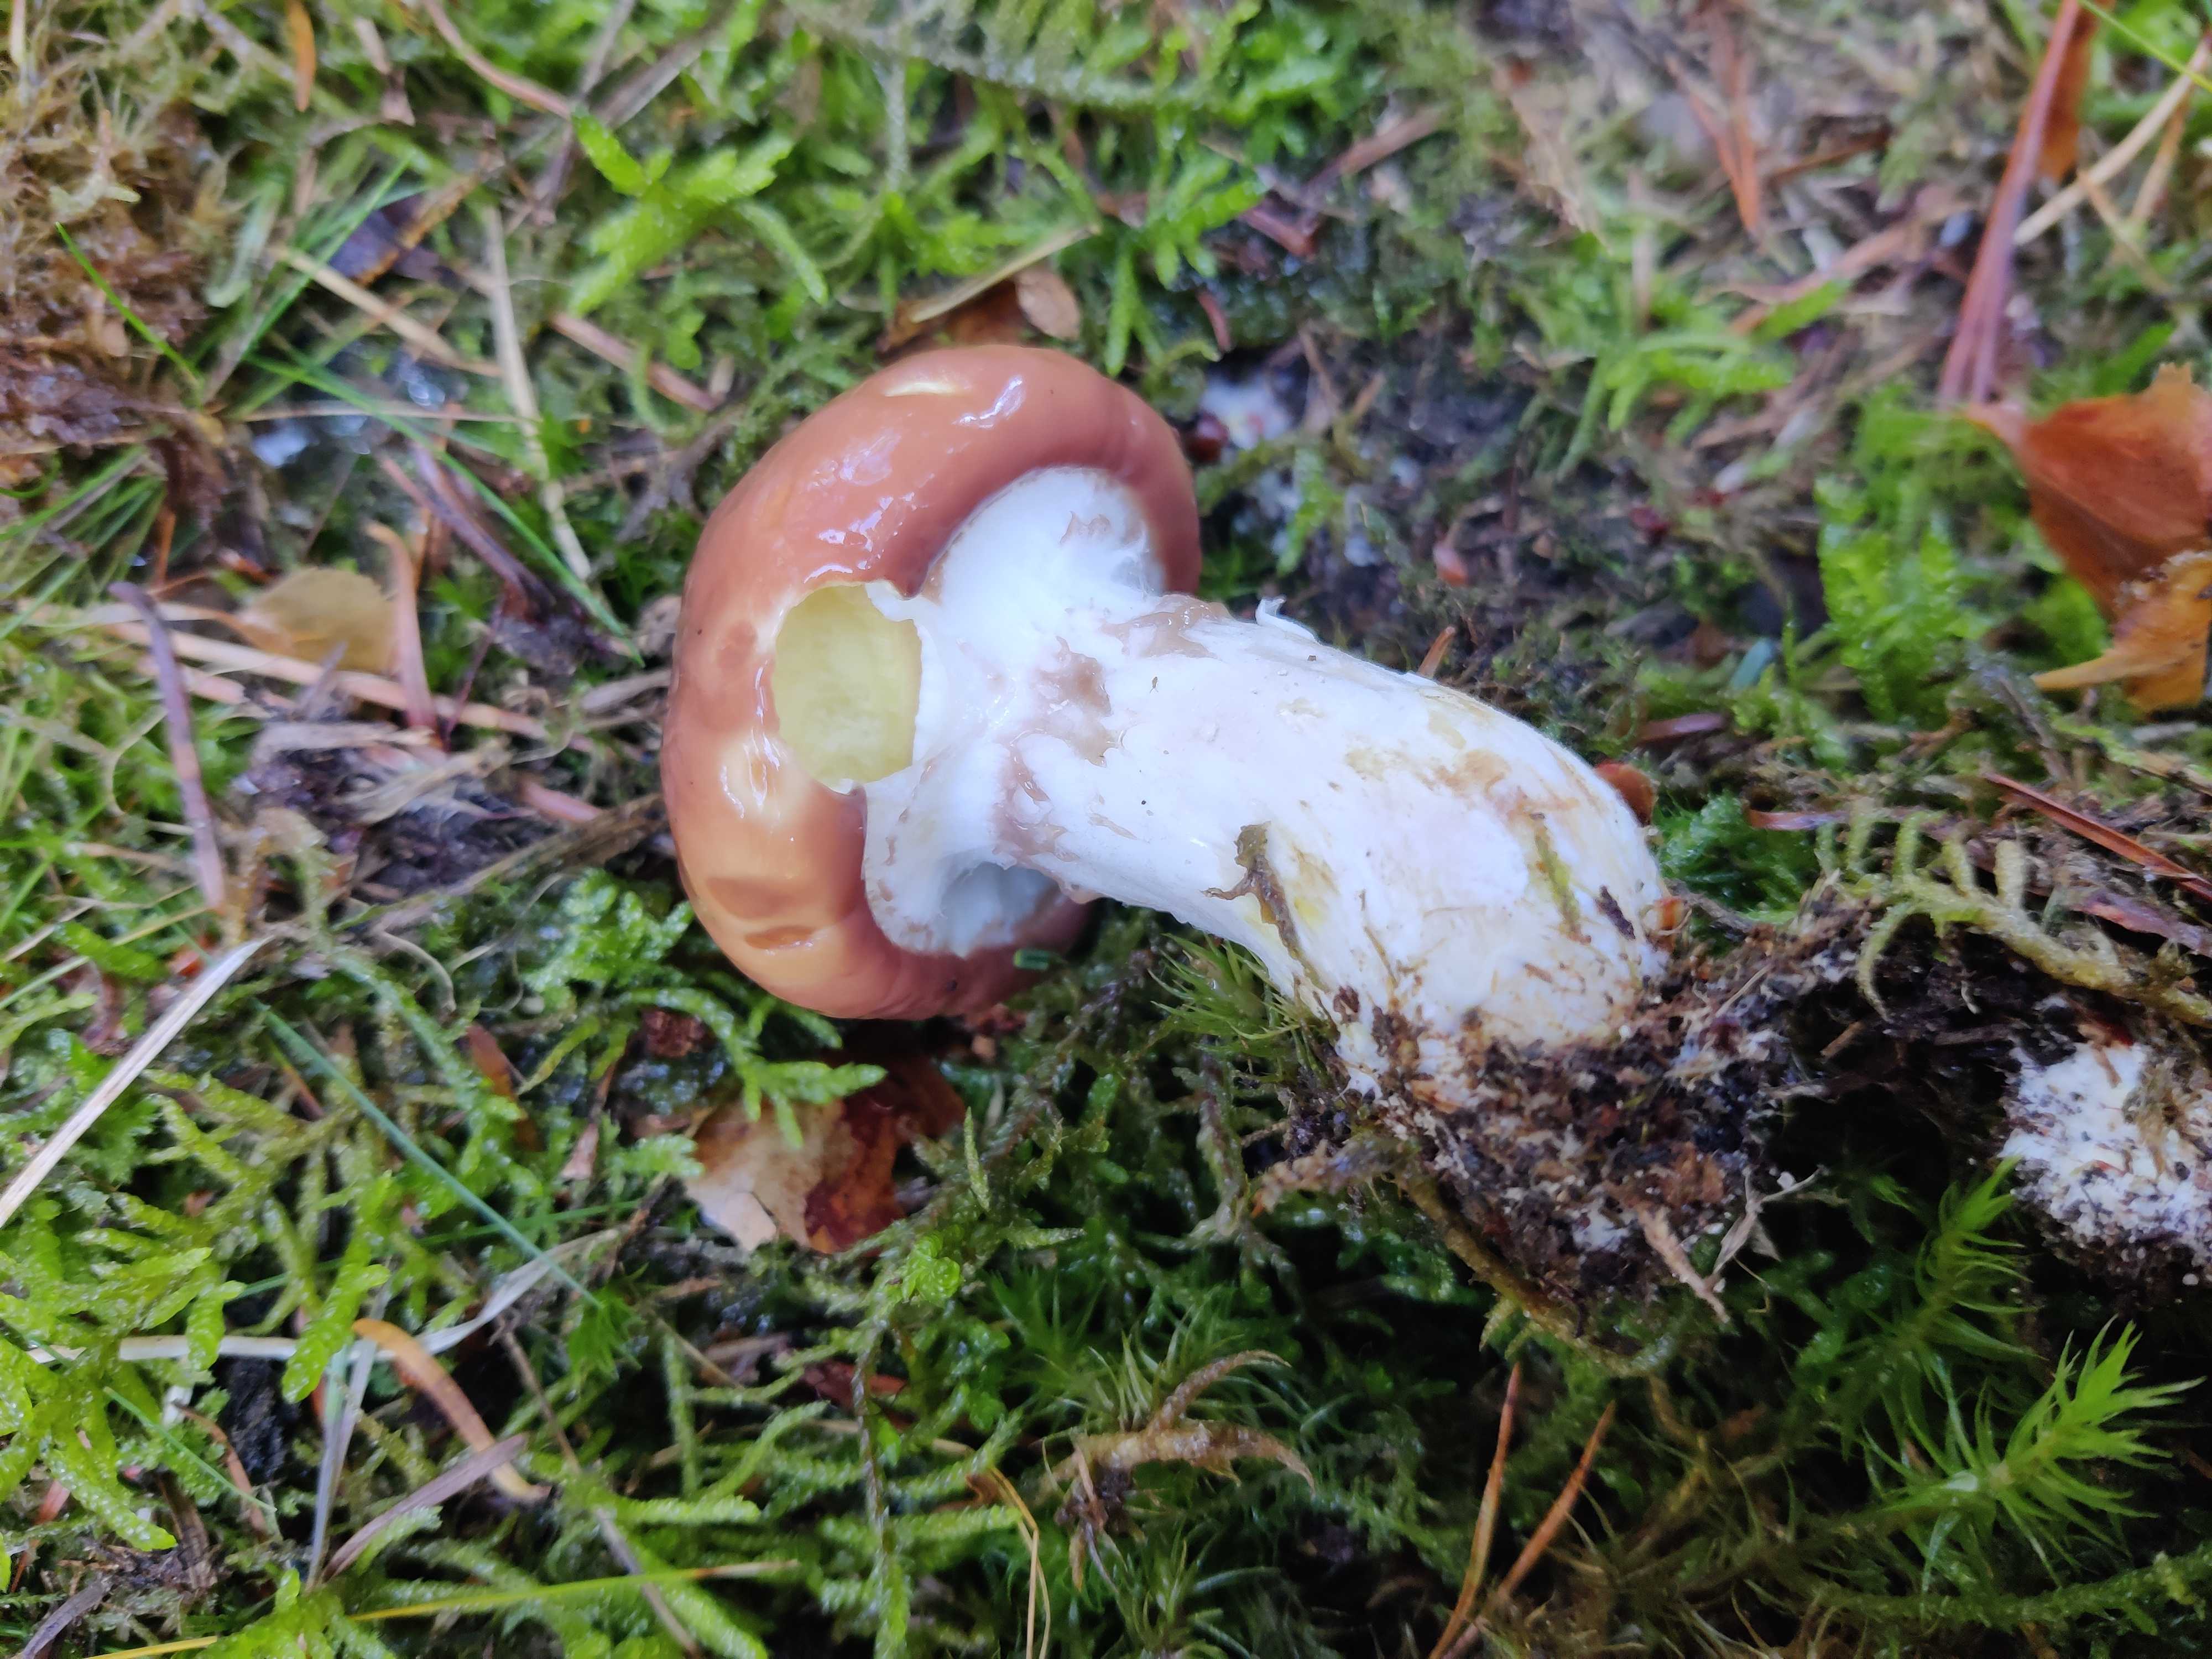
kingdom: Fungi
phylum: Basidiomycota
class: Agaricomycetes
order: Boletales
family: Suillaceae
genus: Suillus
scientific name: Suillus luteus
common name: brungul slimrørhat
